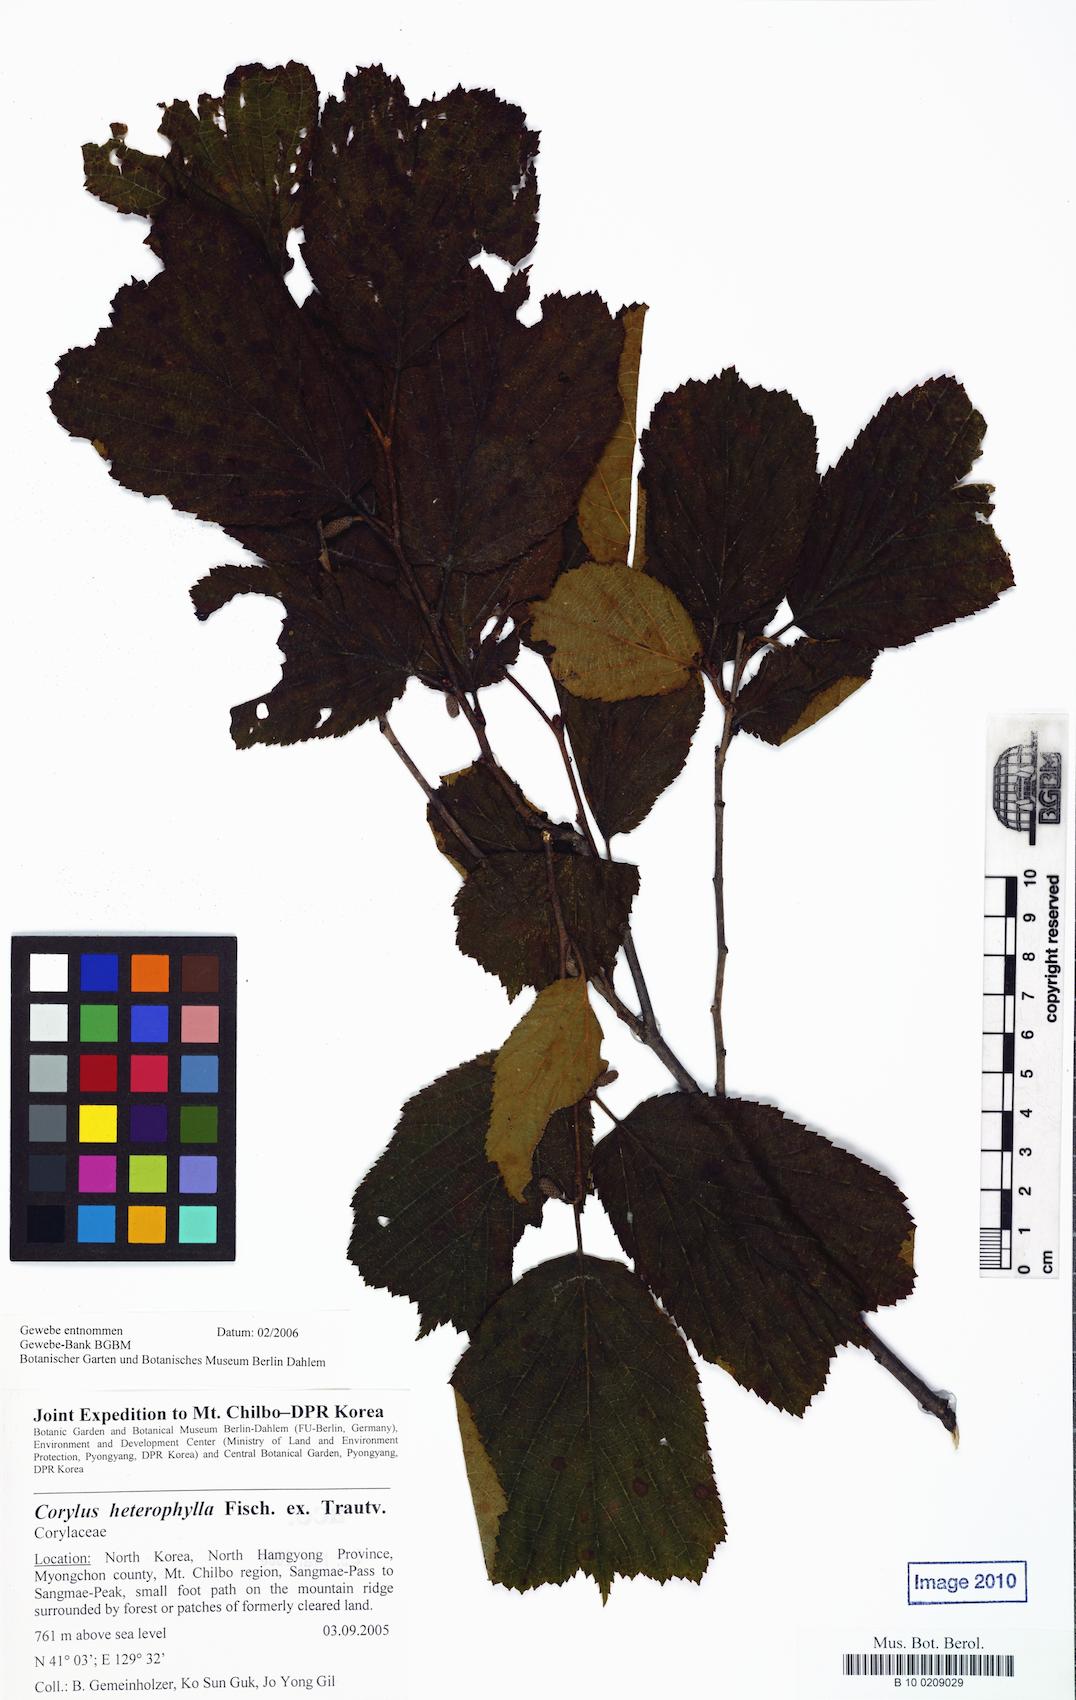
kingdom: Plantae
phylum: Tracheophyta
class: Magnoliopsida
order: Fagales
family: Betulaceae
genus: Corylus
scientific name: Corylus heterophylla
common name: Siberian hazelnut
